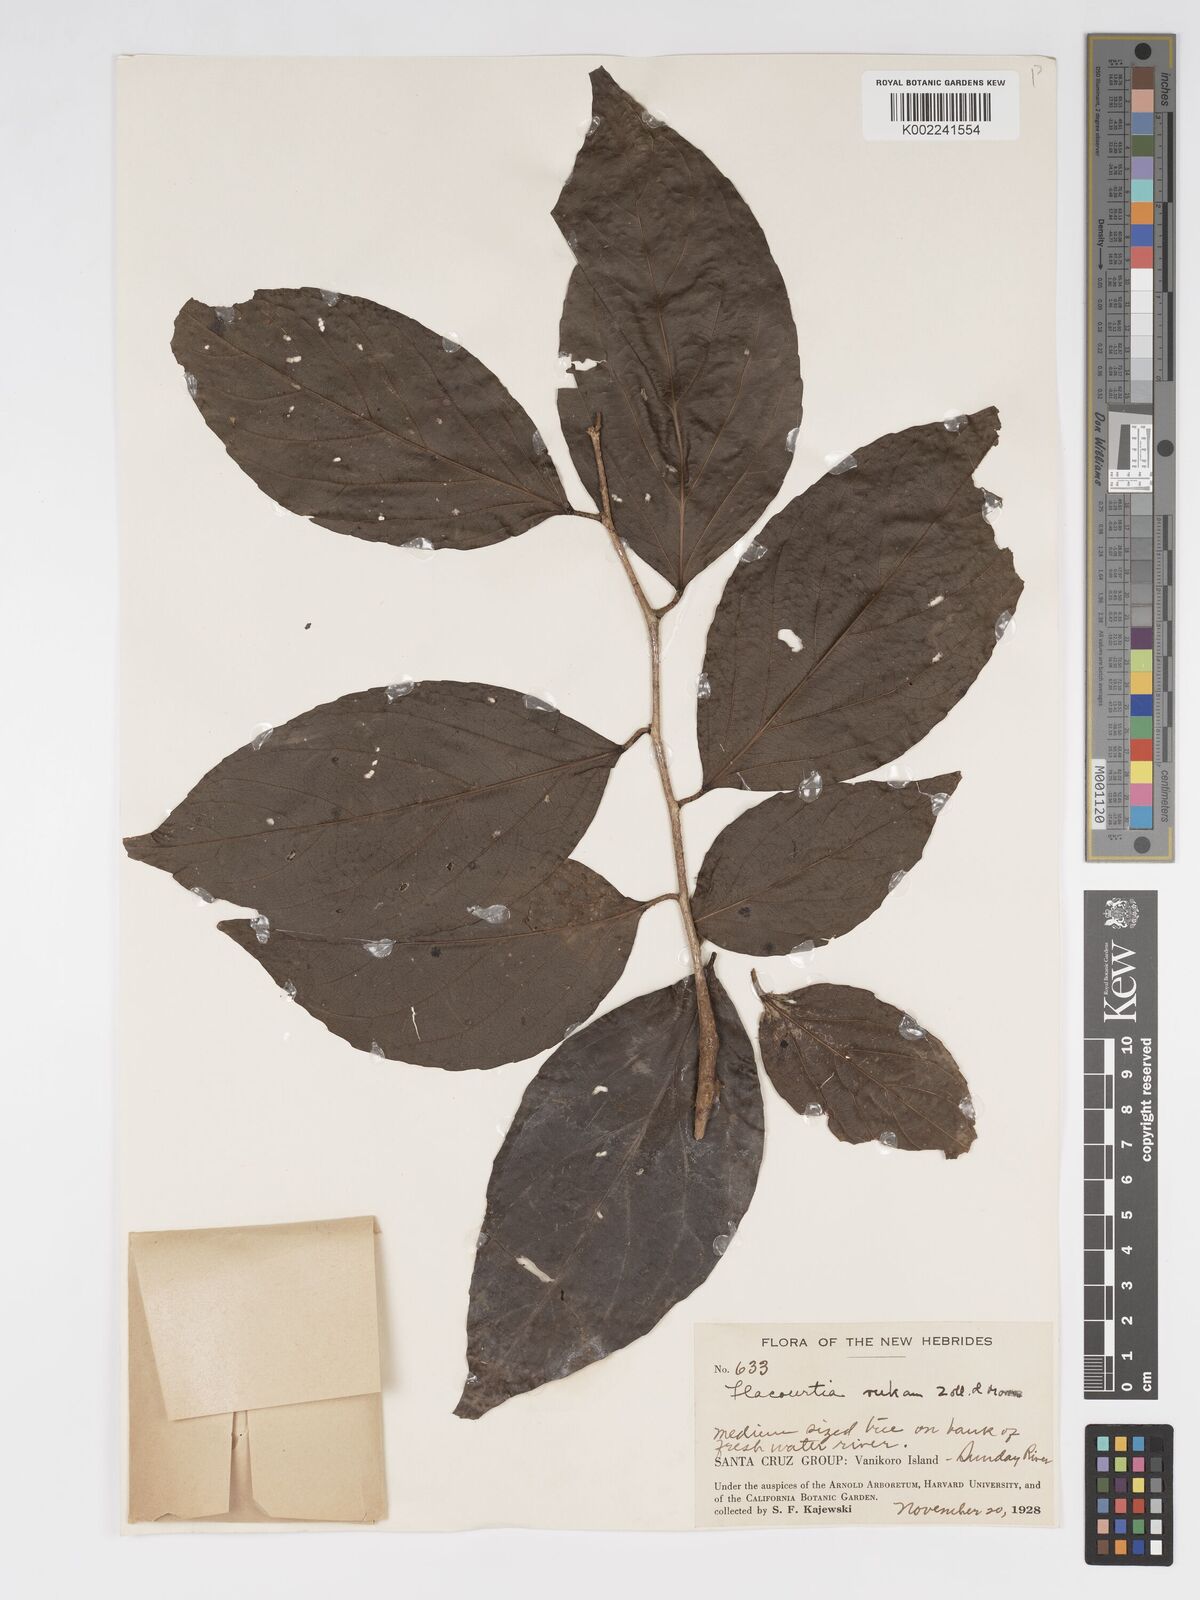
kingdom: Plantae
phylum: Tracheophyta
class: Magnoliopsida
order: Malpighiales
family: Salicaceae
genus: Flacourtia
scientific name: Flacourtia rukam
